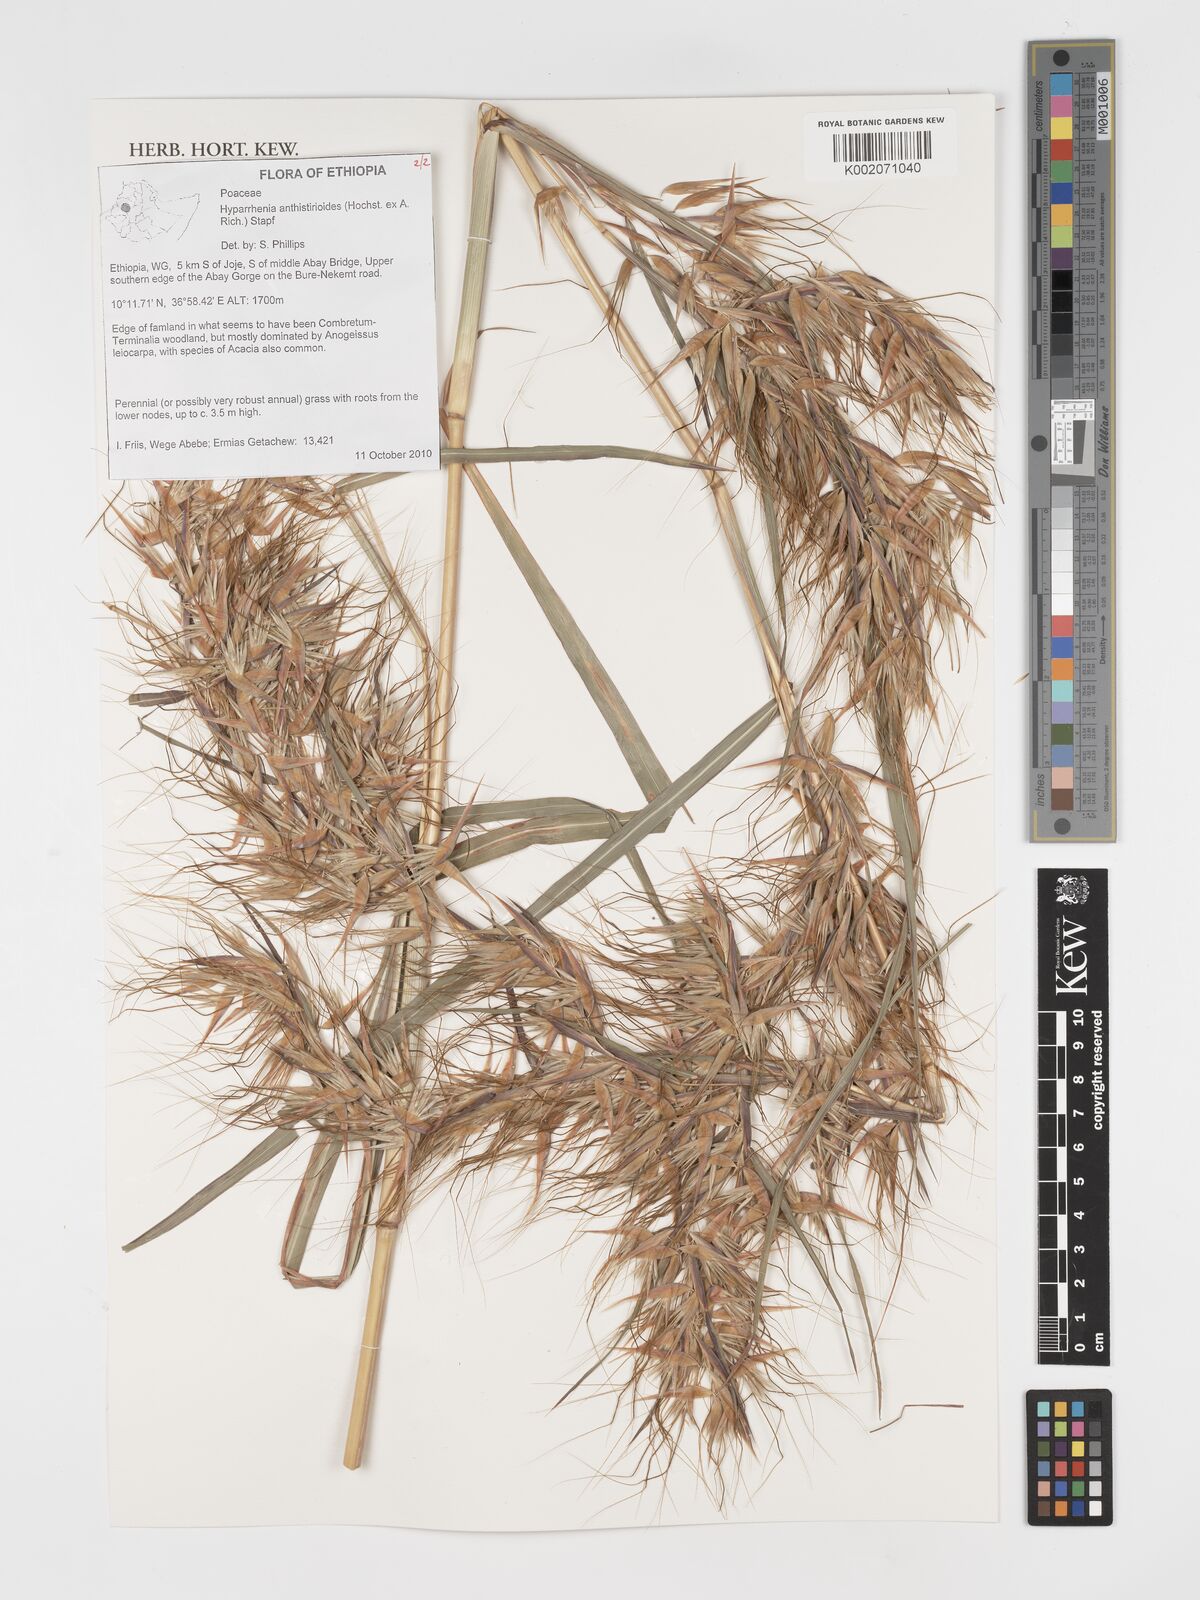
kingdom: Plantae
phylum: Tracheophyta
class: Liliopsida
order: Poales
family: Poaceae
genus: Hyparrhenia
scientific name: Hyparrhenia anthistirioides
